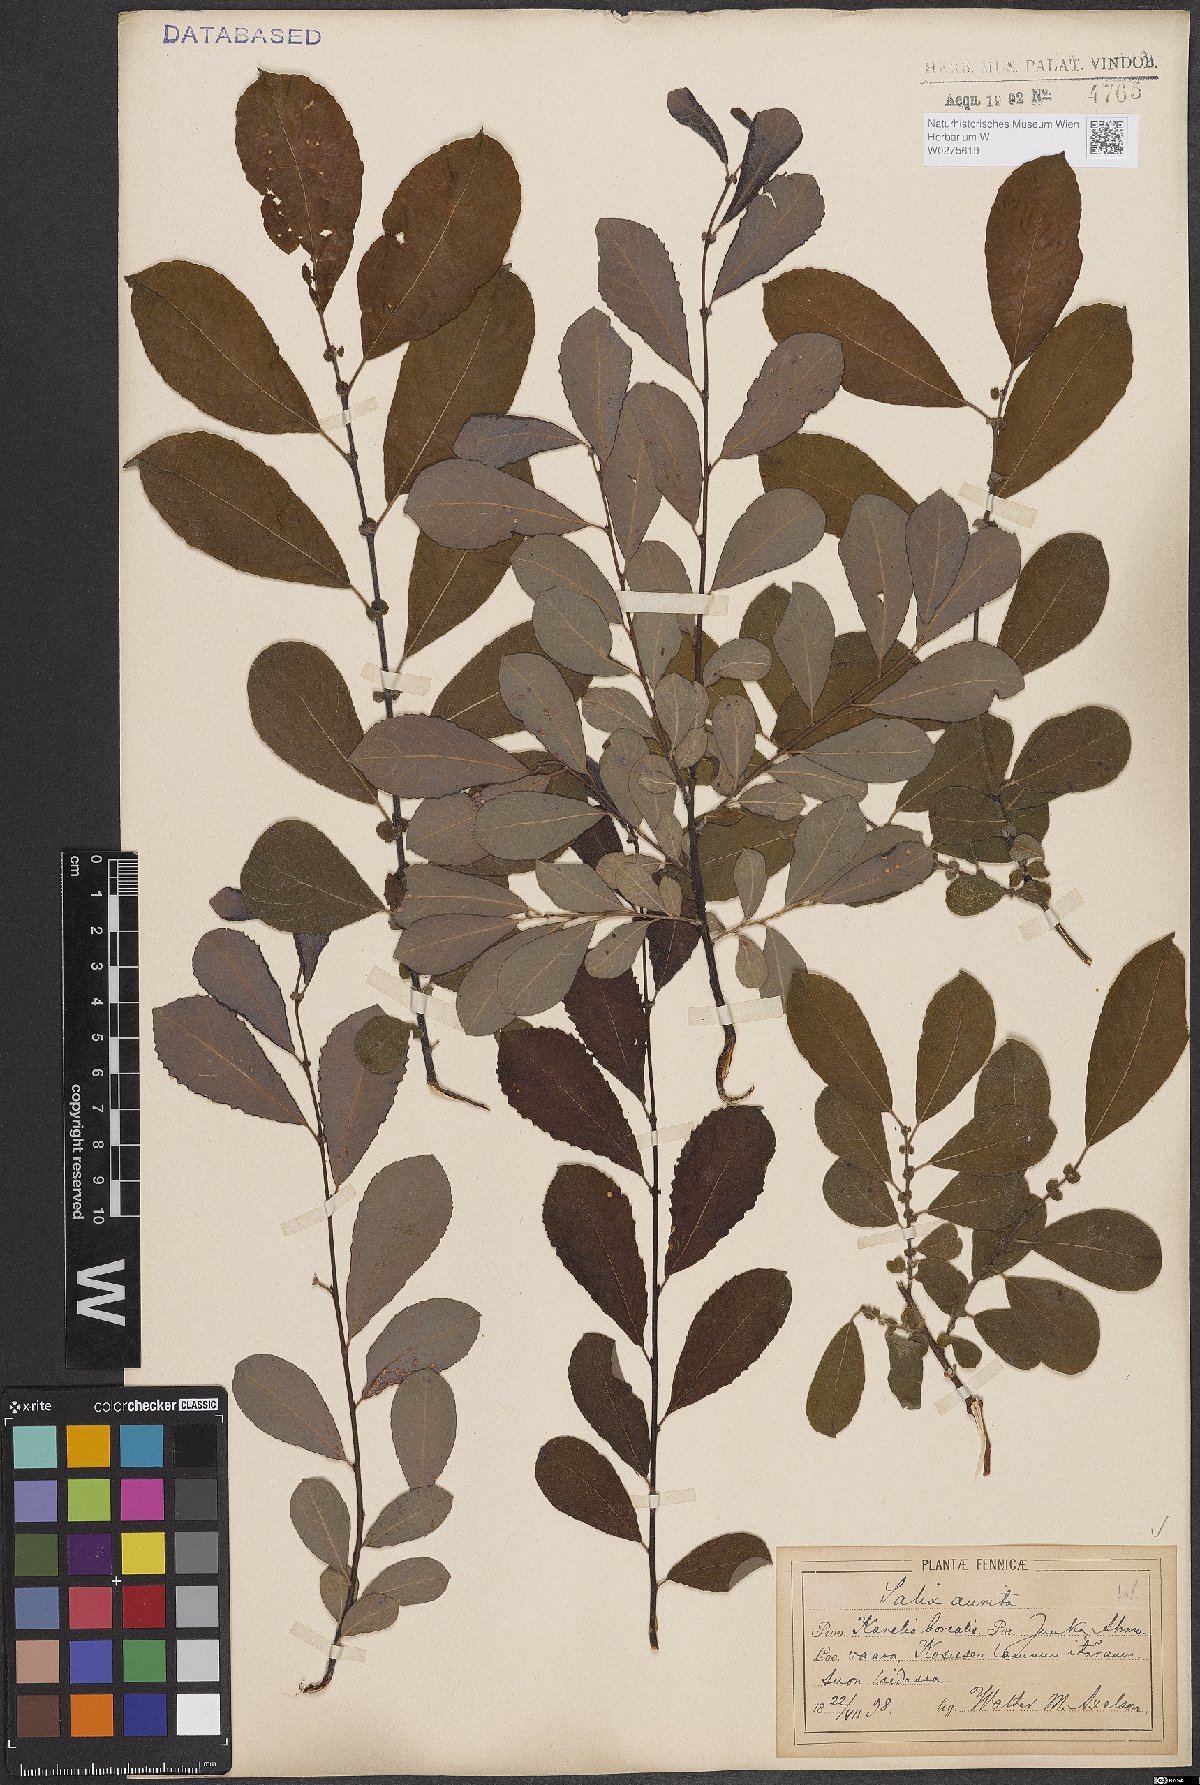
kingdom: Plantae
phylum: Tracheophyta
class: Magnoliopsida
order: Malpighiales
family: Salicaceae
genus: Salix
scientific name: Salix aurita
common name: Eared willow
